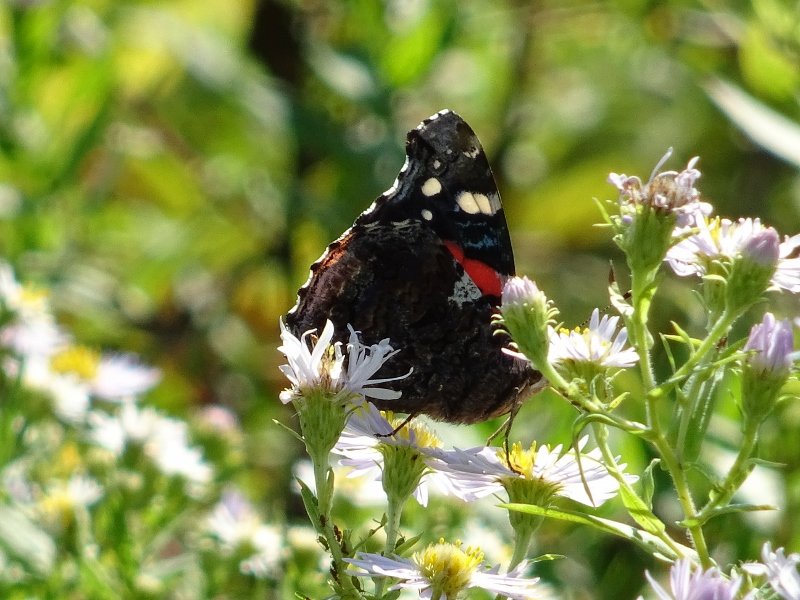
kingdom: Animalia
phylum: Arthropoda
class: Insecta
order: Lepidoptera
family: Nymphalidae
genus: Vanessa
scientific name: Vanessa atalanta
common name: Red Admiral
